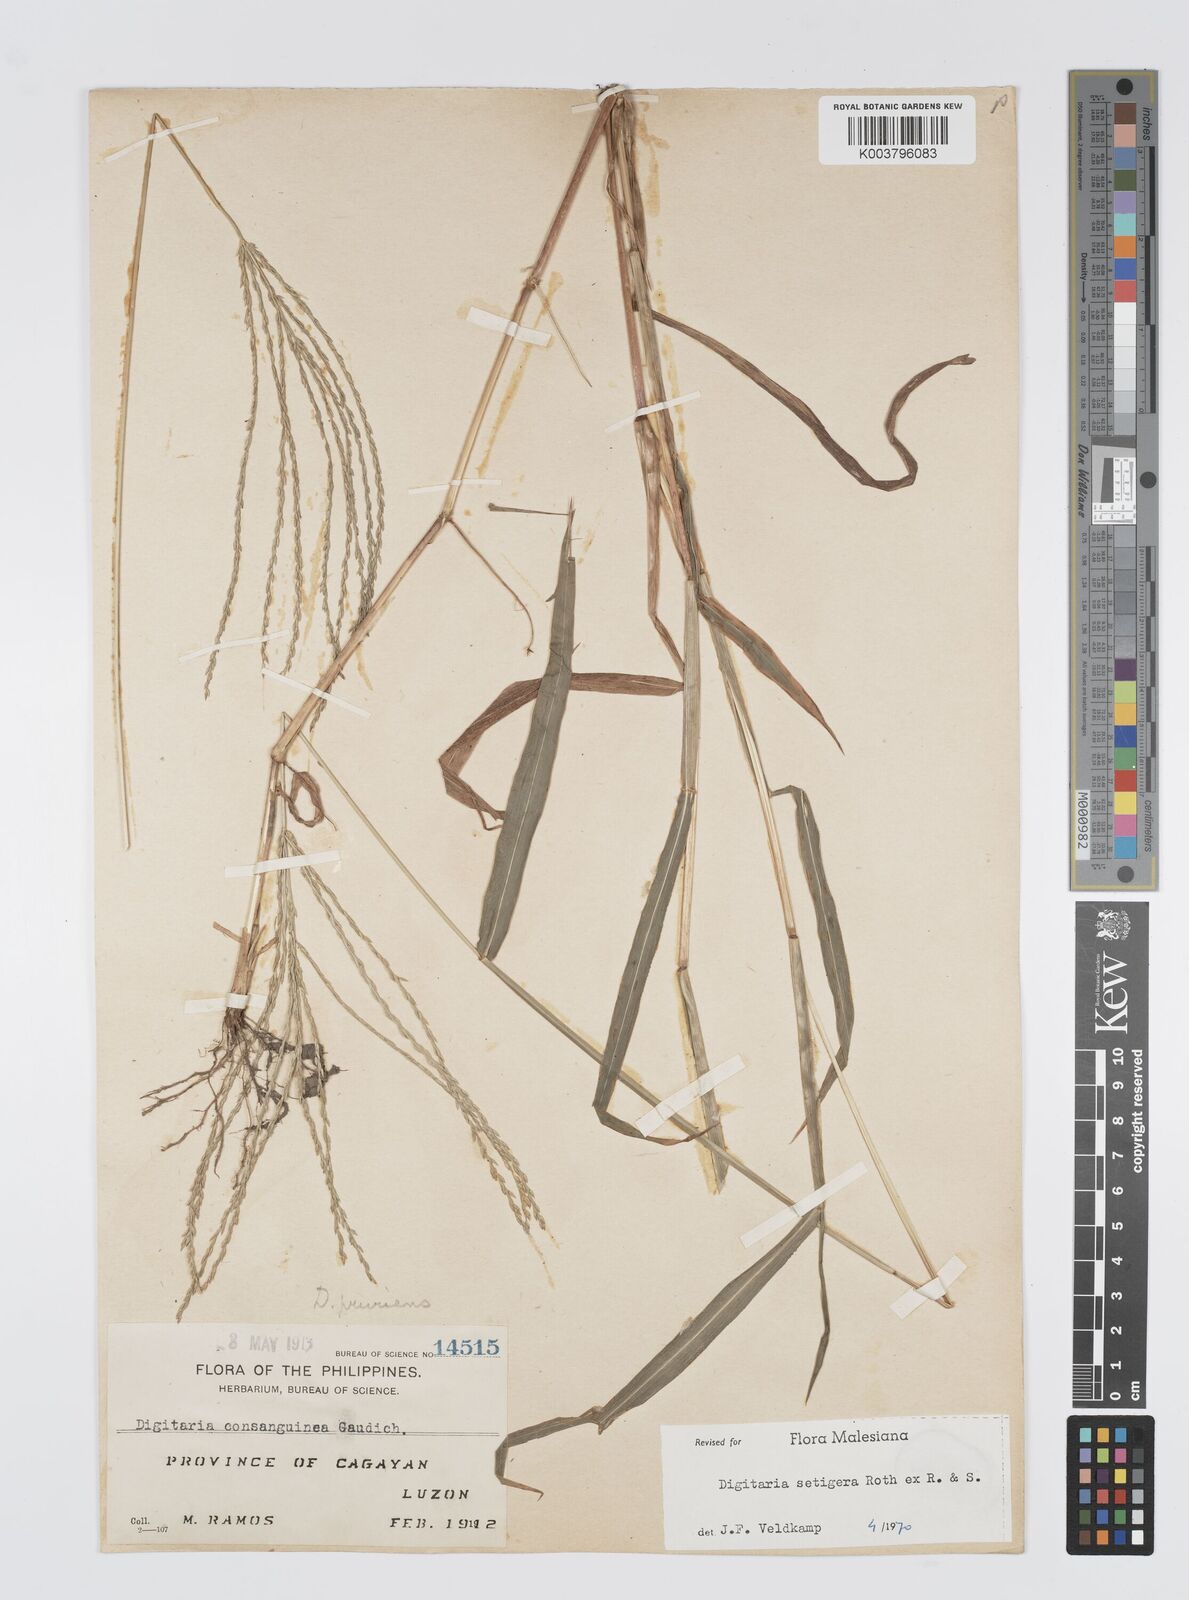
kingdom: Plantae
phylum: Tracheophyta
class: Liliopsida
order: Poales
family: Poaceae
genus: Digitaria
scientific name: Digitaria setigera
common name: East indian crabgrass
